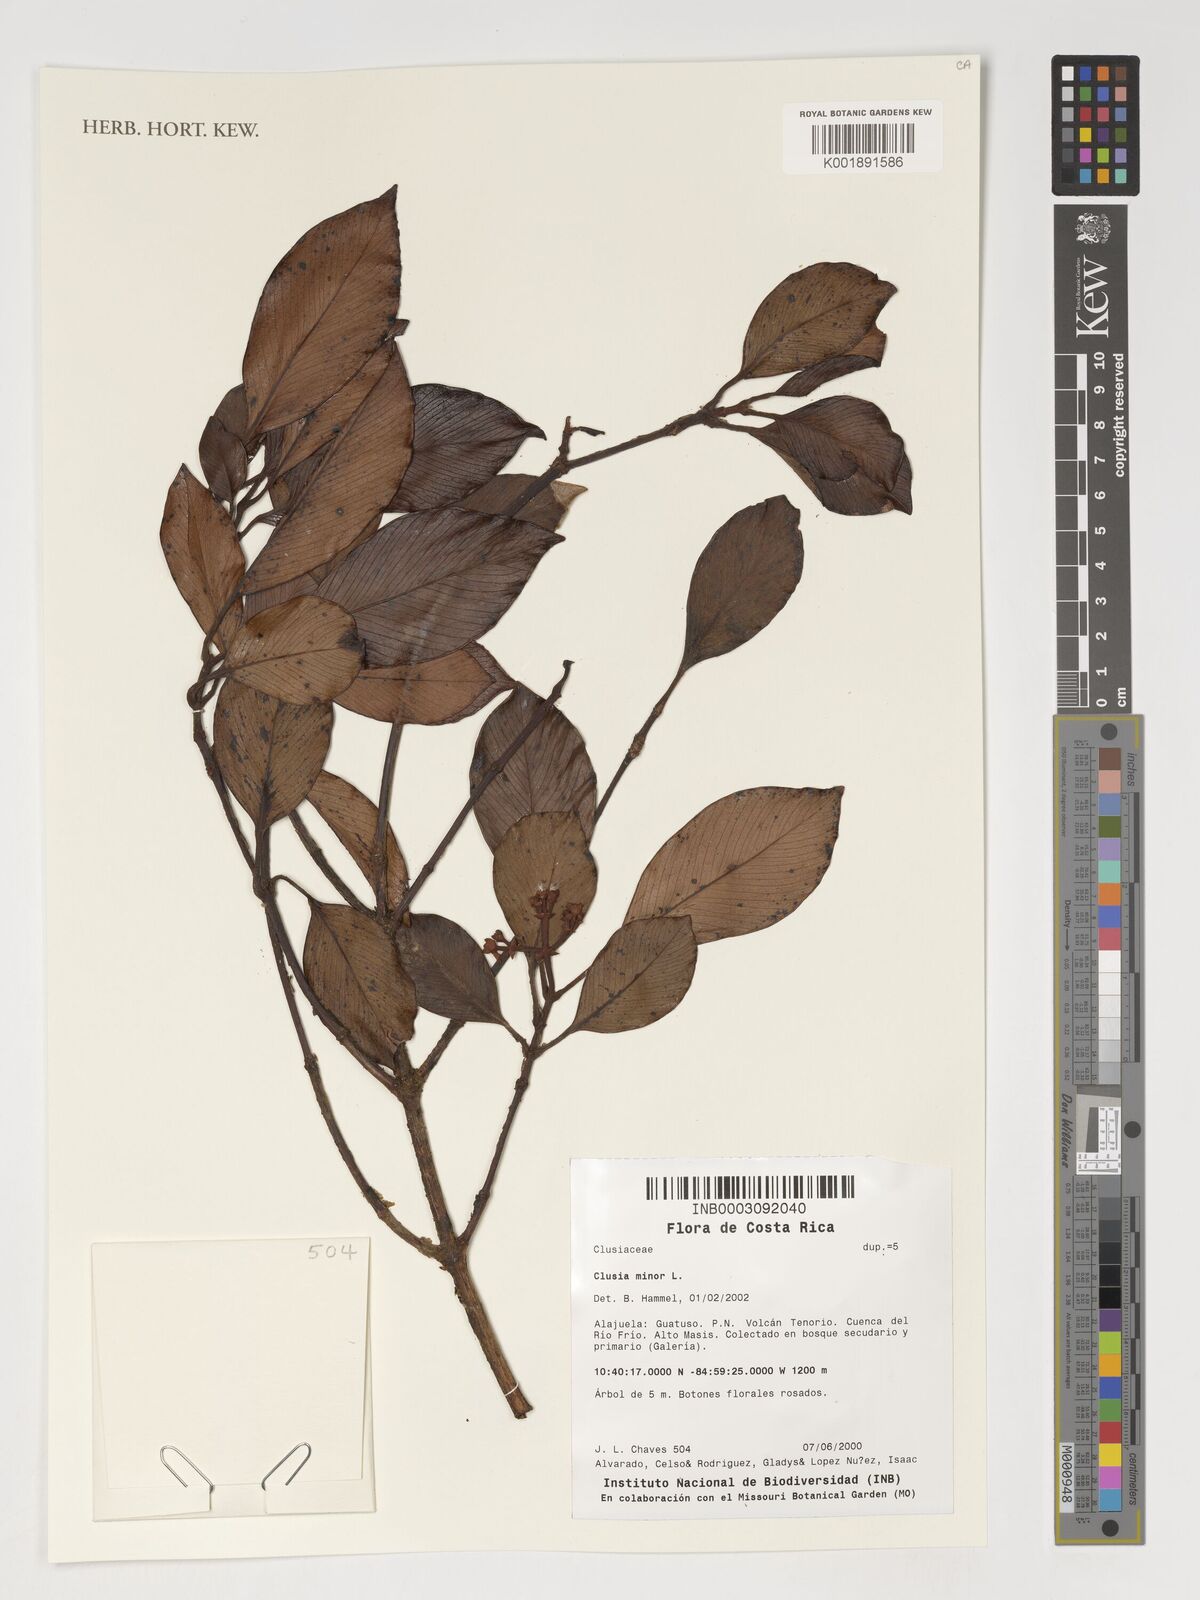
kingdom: Plantae
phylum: Tracheophyta
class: Magnoliopsida
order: Malpighiales
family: Clusiaceae
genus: Clusia
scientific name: Clusia minor
